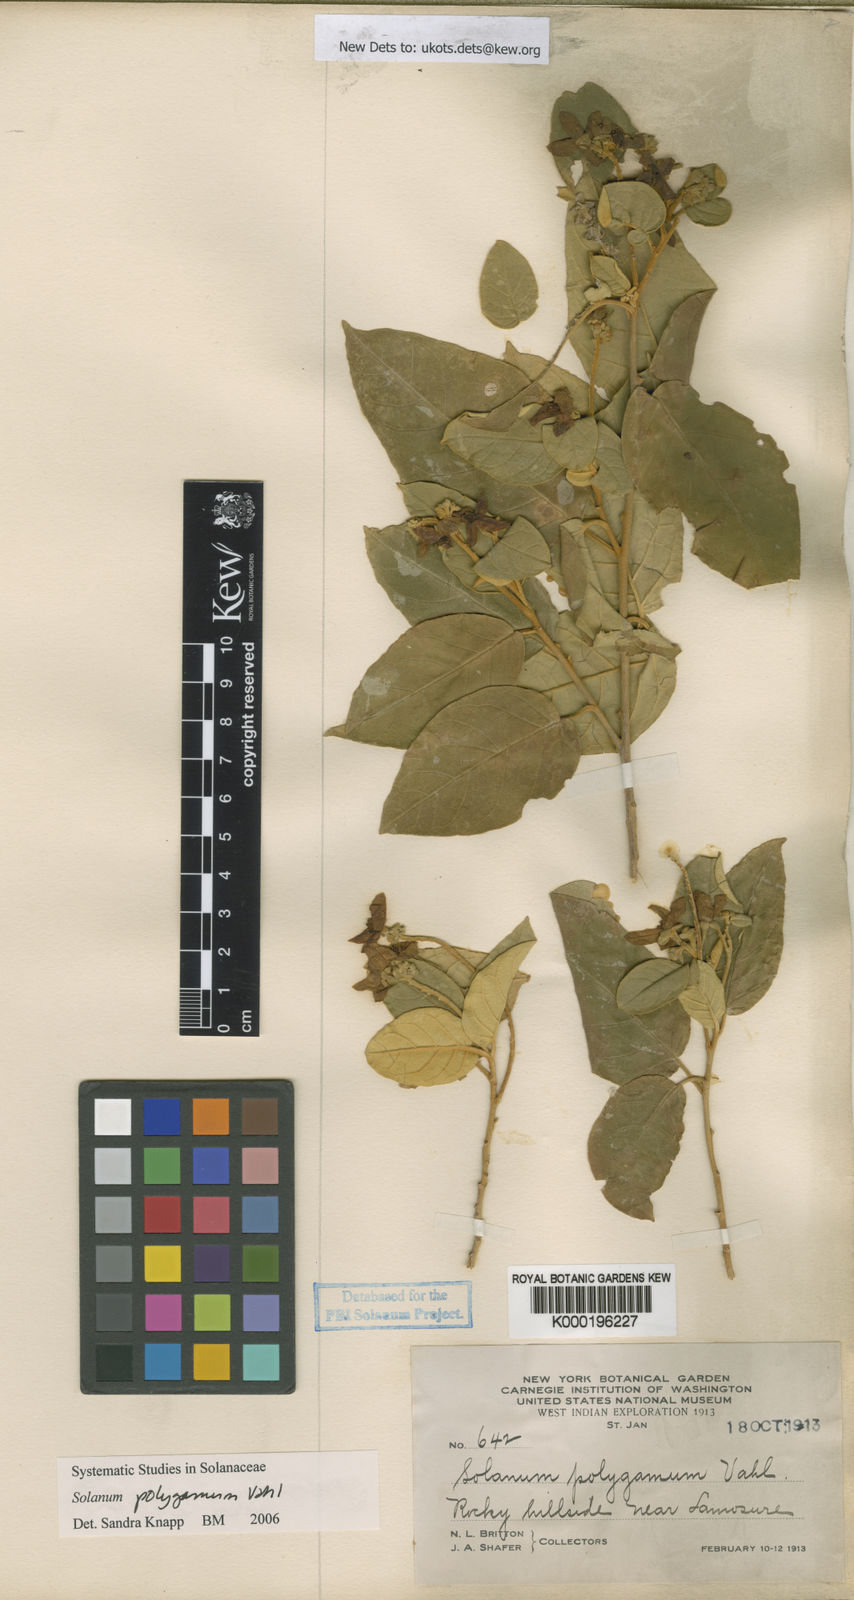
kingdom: Plantae
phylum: Tracheophyta
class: Magnoliopsida
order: Solanales
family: Solanaceae
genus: Solanum
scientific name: Solanum polygamum
